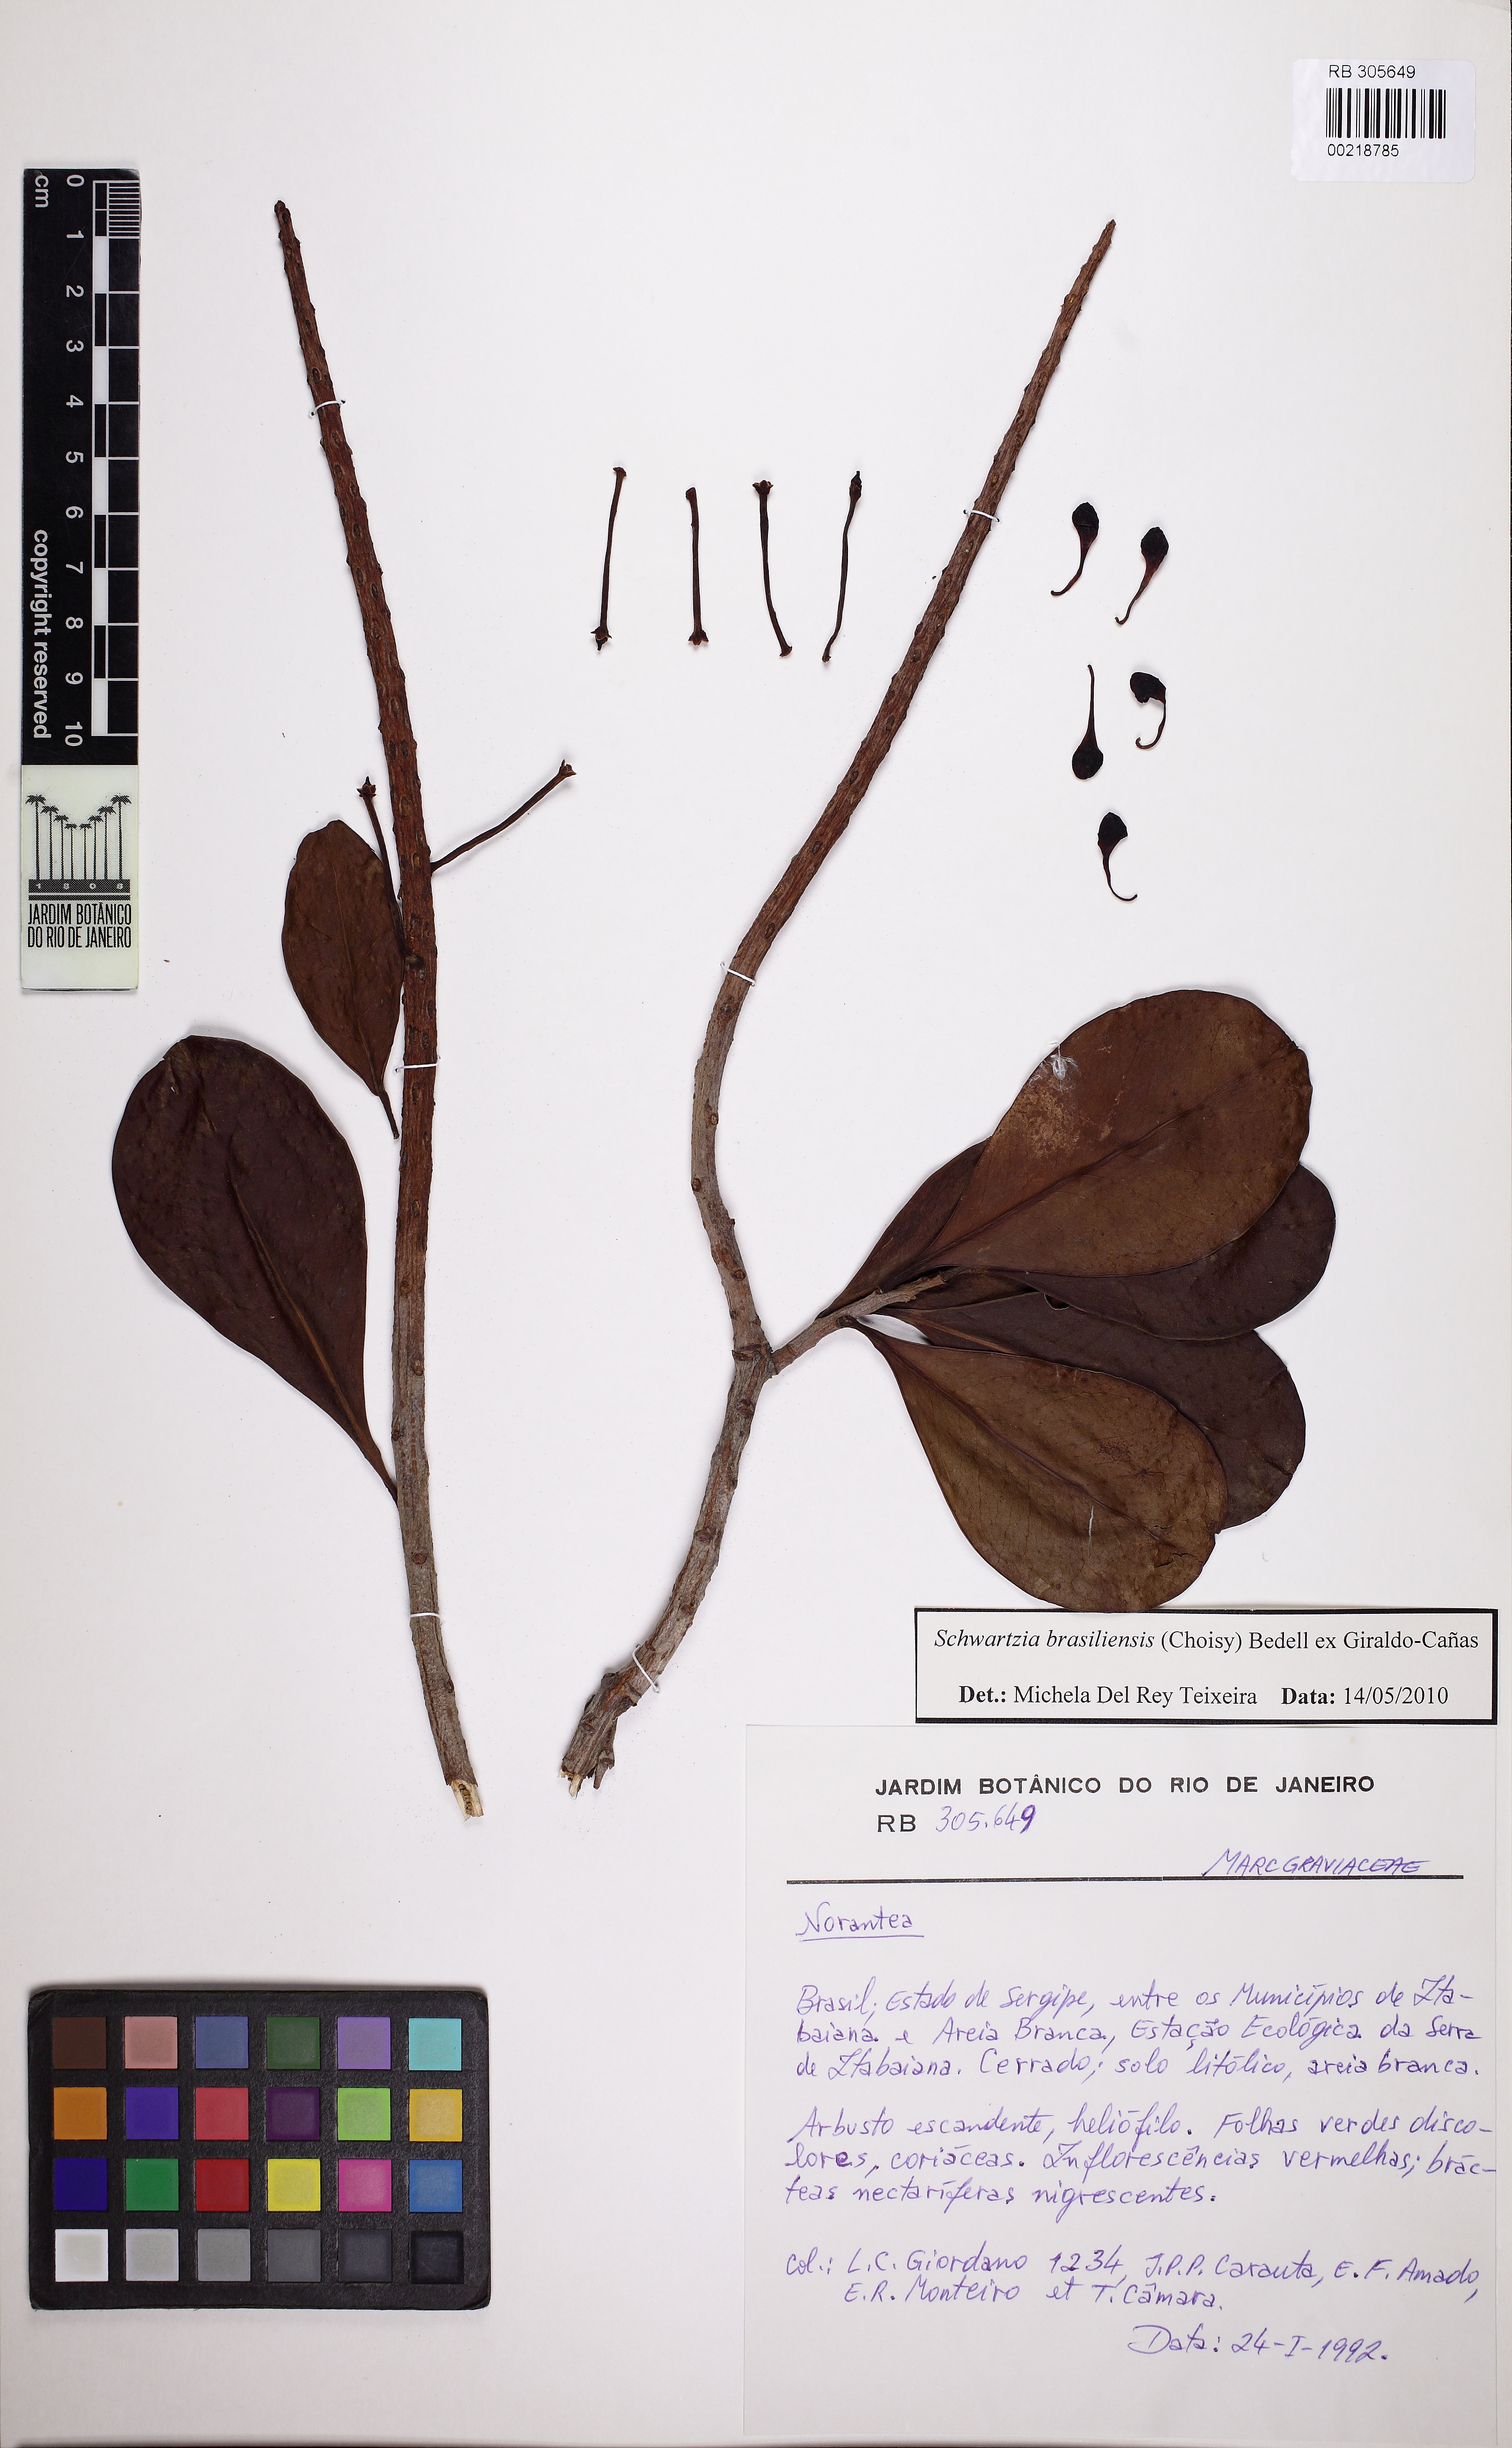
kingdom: Plantae
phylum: Tracheophyta
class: Magnoliopsida
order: Ericales
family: Marcgraviaceae
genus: Schwartzia
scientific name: Schwartzia brasiliensis
